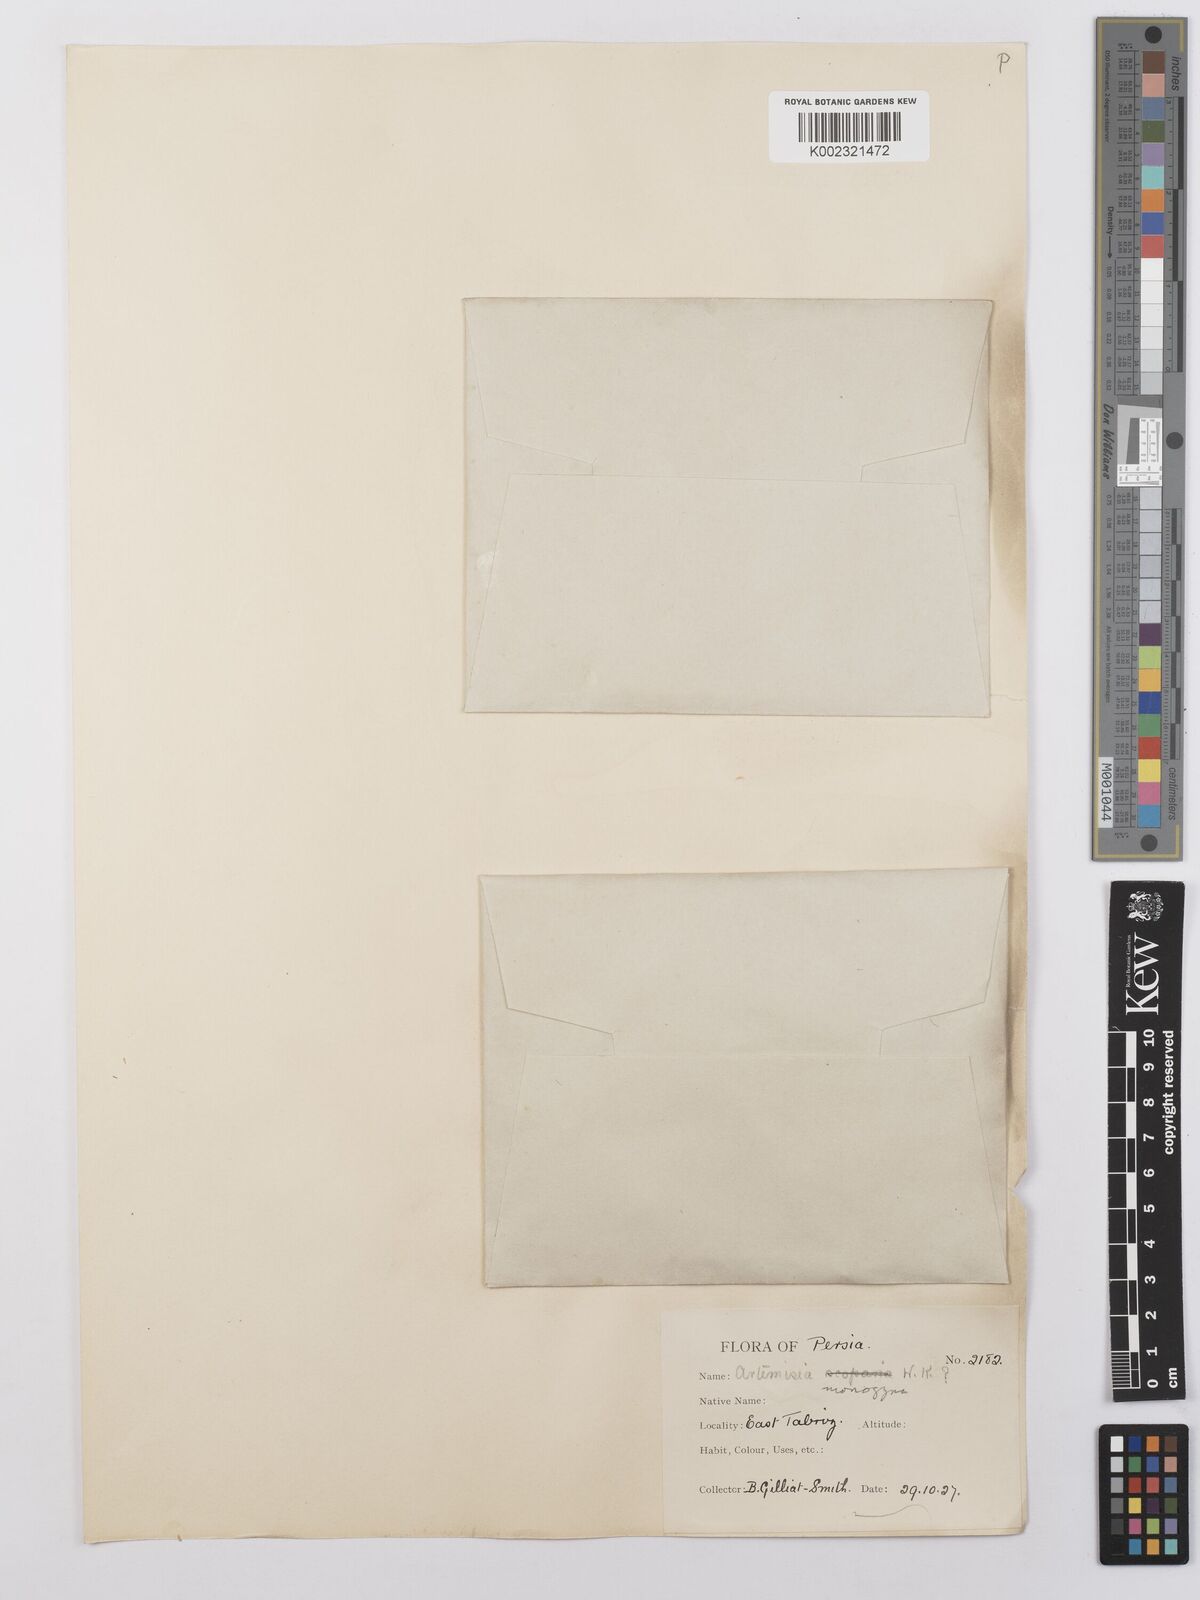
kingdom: Plantae
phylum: Tracheophyta
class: Magnoliopsida
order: Asterales
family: Asteraceae
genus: Artemisia
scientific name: Artemisia fragrans
